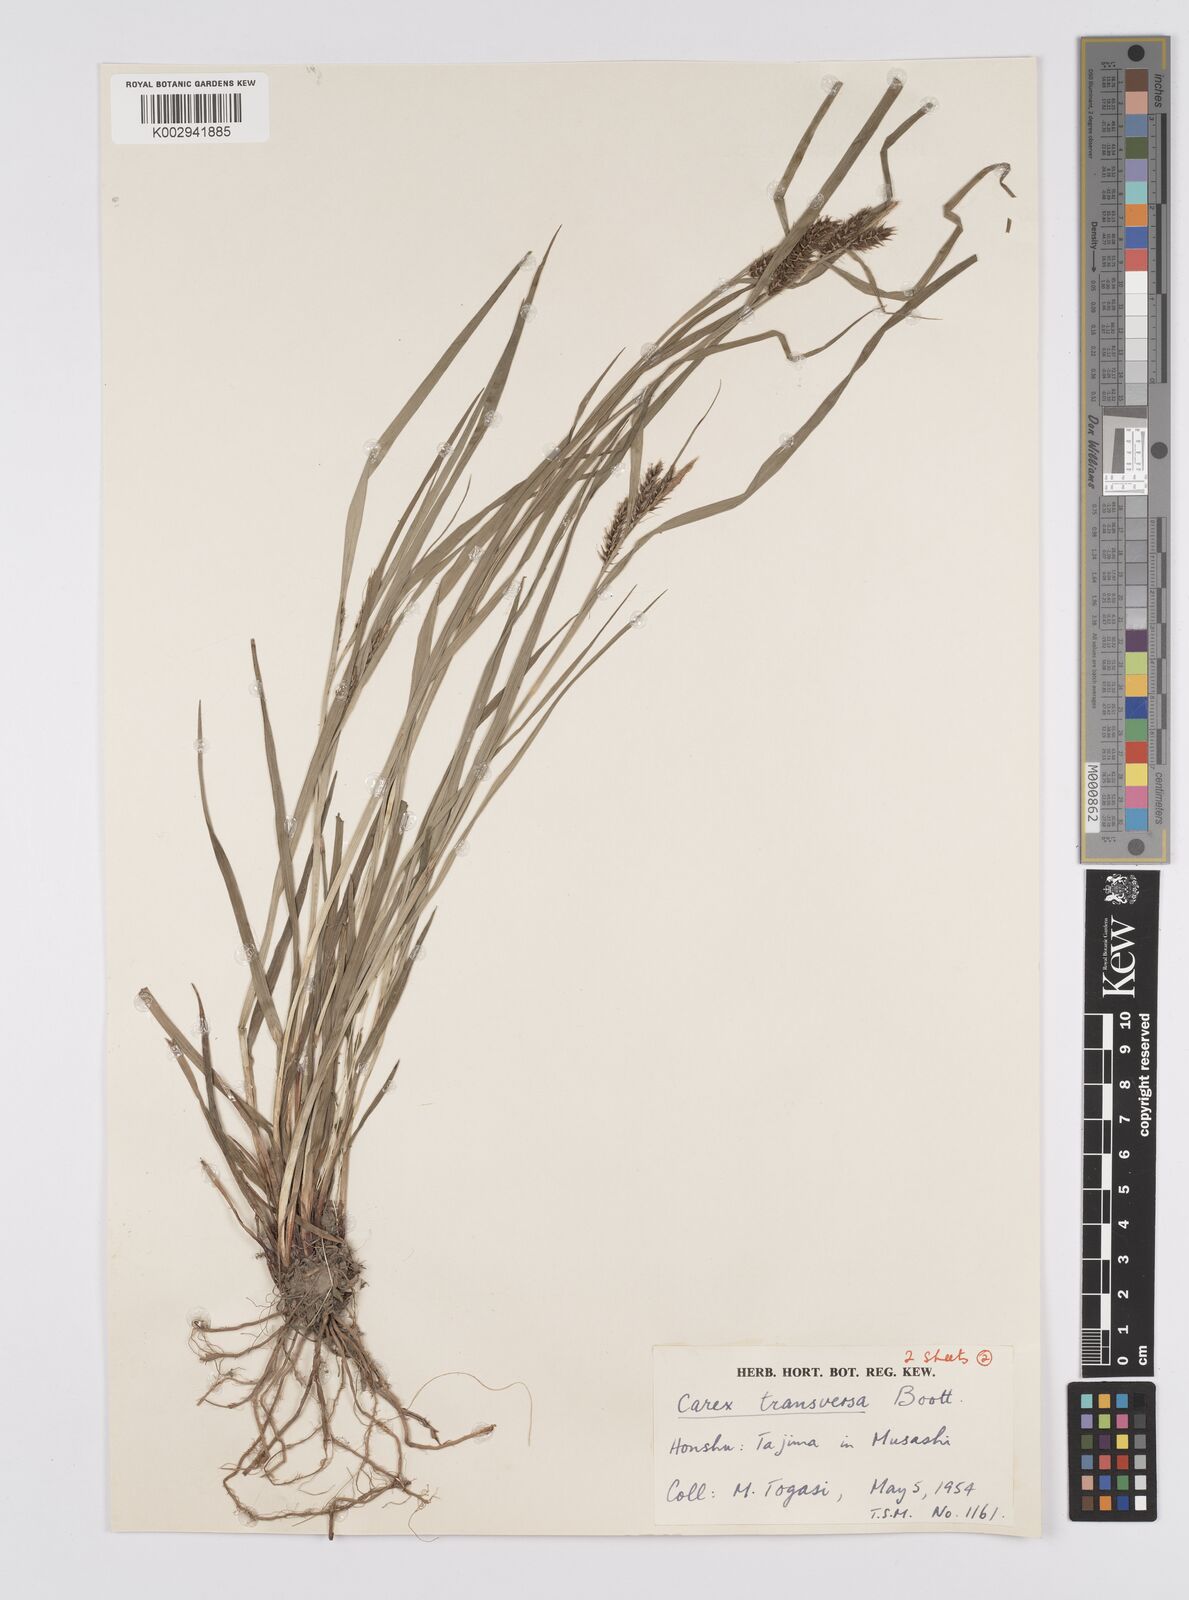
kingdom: Plantae
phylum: Tracheophyta
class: Liliopsida
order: Poales
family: Cyperaceae
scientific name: Cyperaceae
